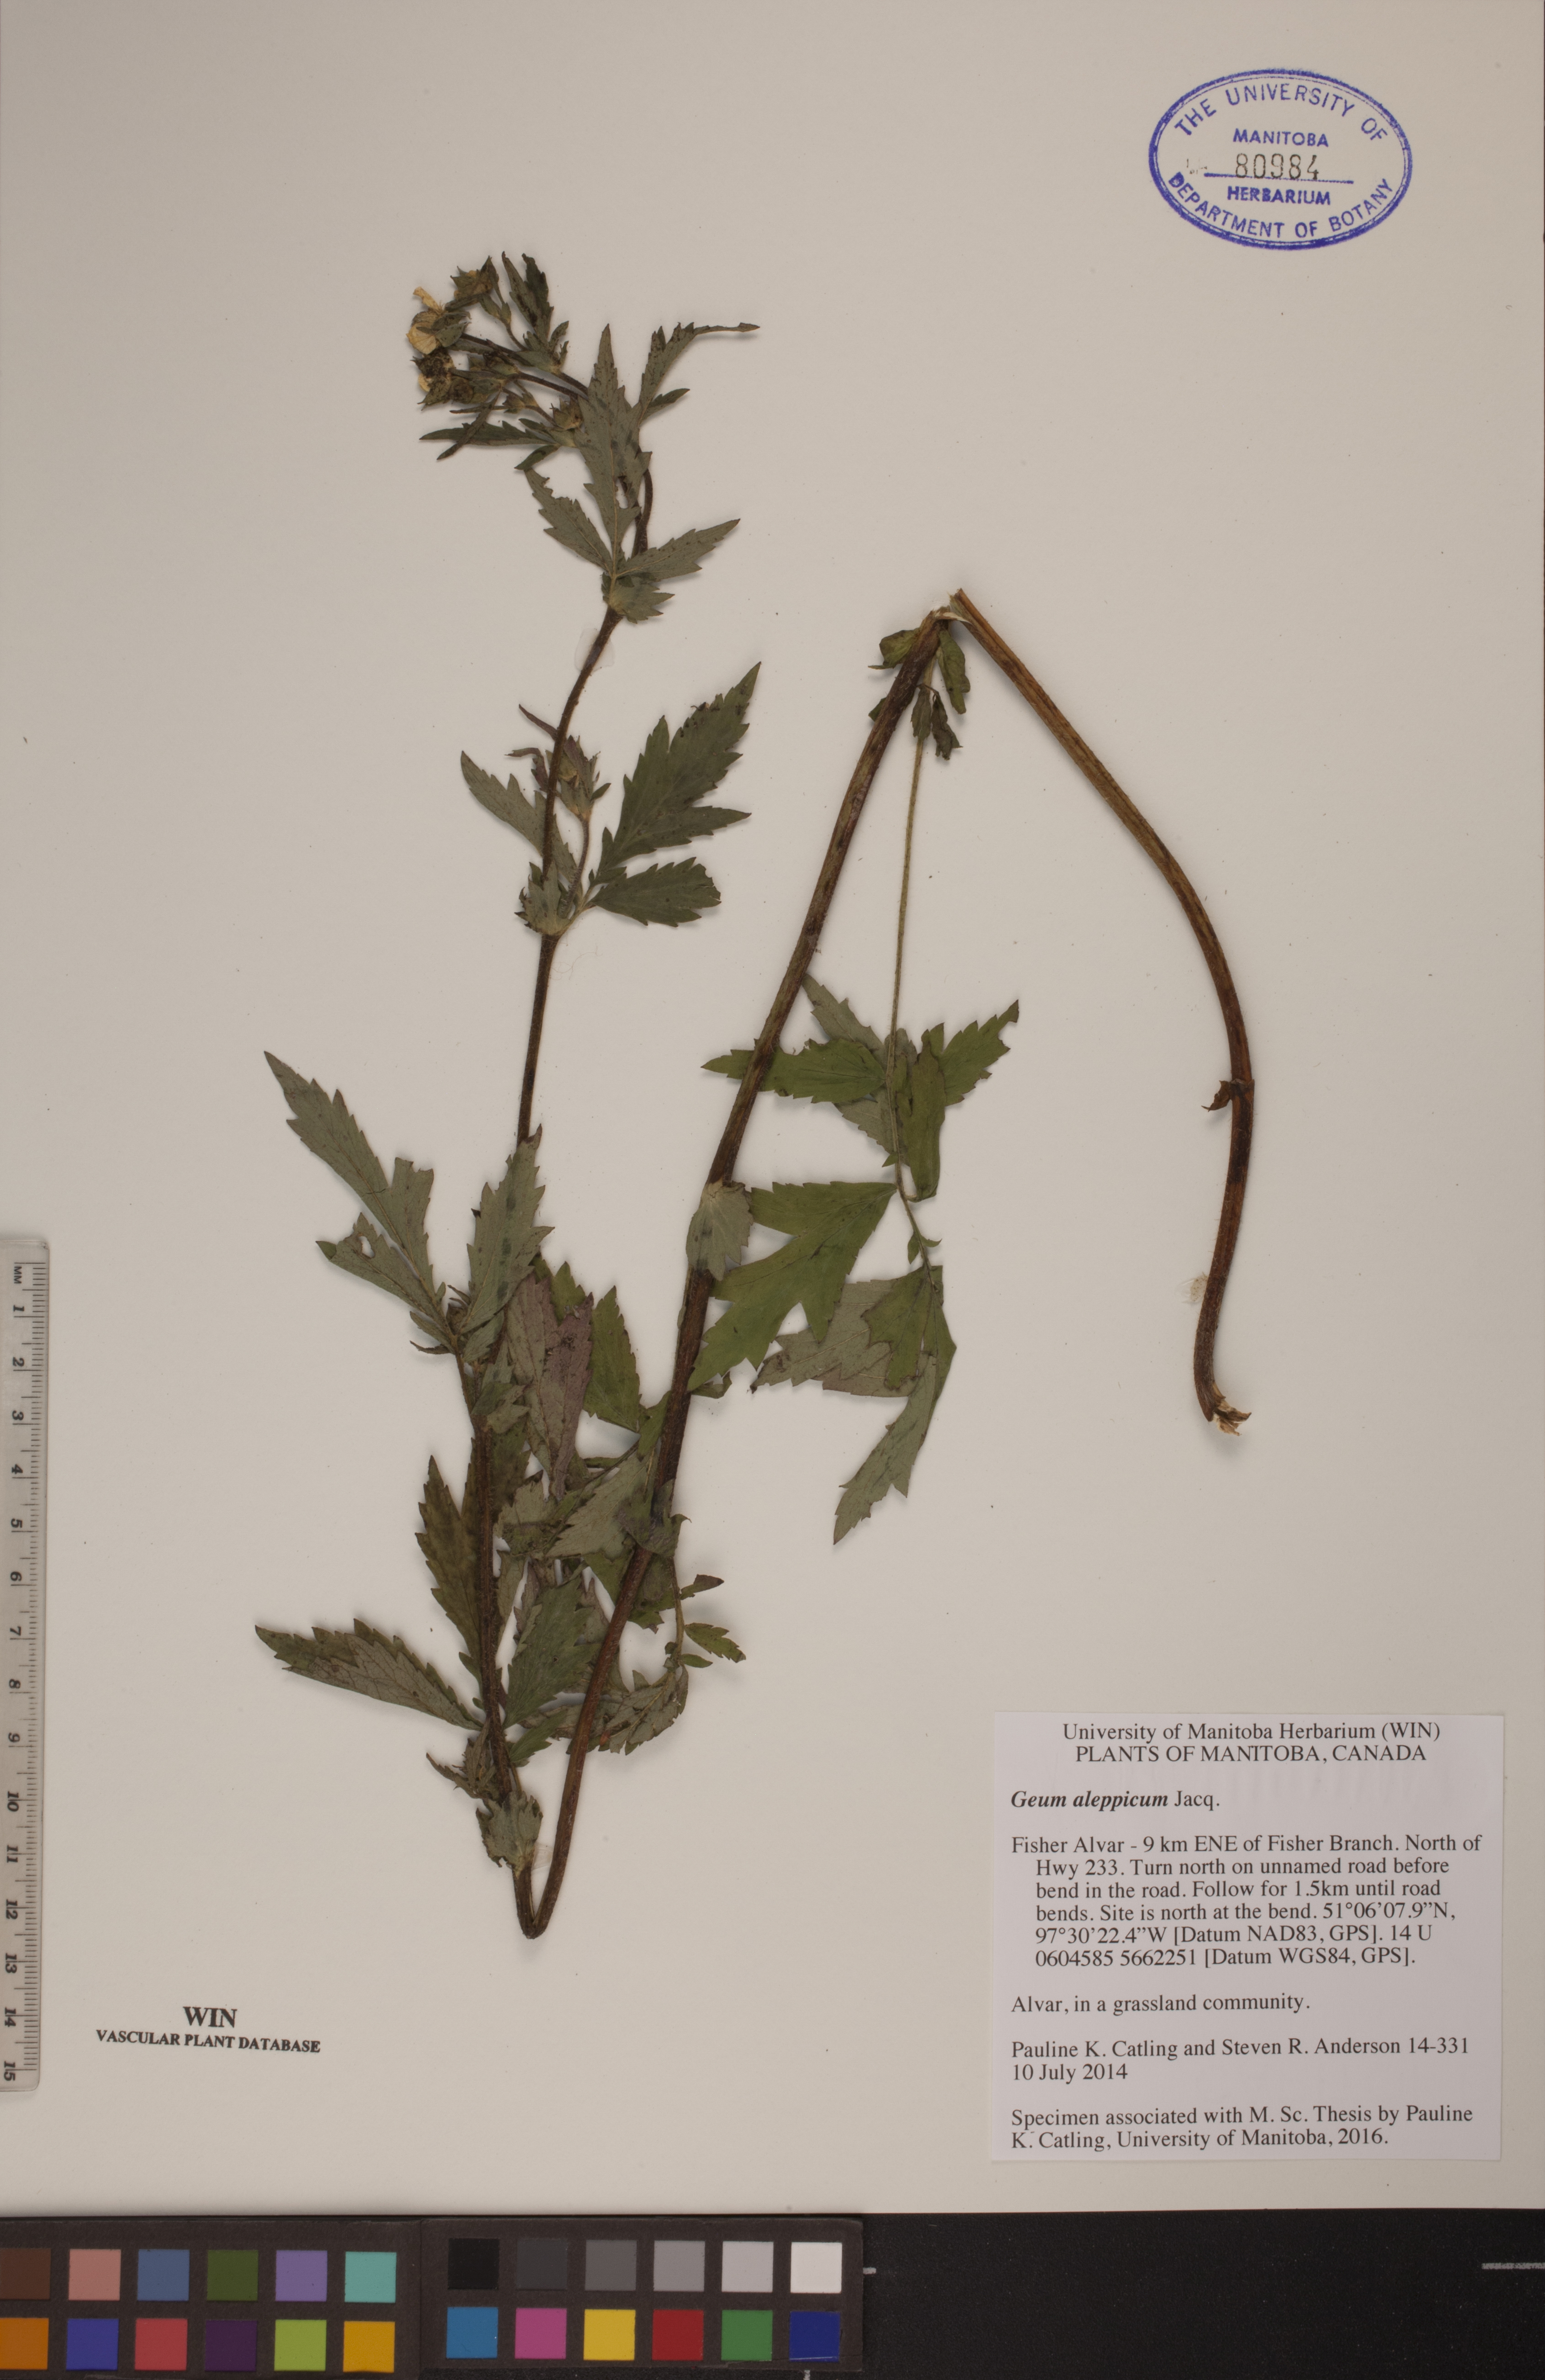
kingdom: Plantae
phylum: Tracheophyta
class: Magnoliopsida
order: Rosales
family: Rosaceae
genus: Geum
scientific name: Geum aleppicum
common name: Yellow avens
